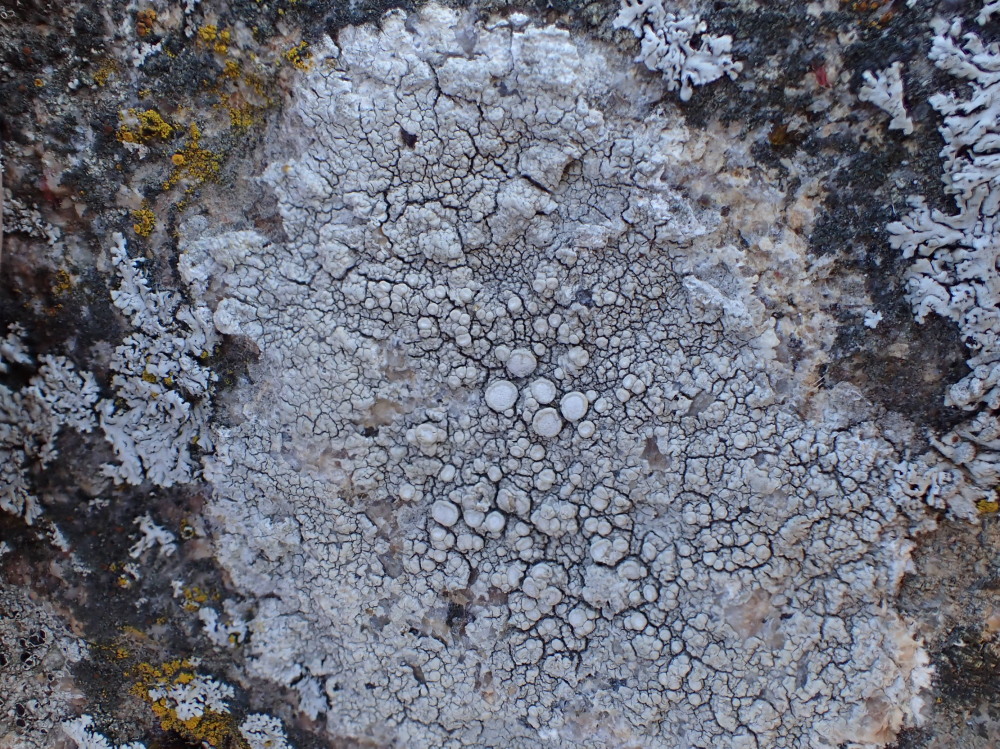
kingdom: Fungi
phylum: Ascomycota
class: Lecanoromycetes
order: Pertusariales
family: Ochrolechiaceae
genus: Ochrolechia
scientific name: Ochrolechia parella
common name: almindelig blegskivelav
